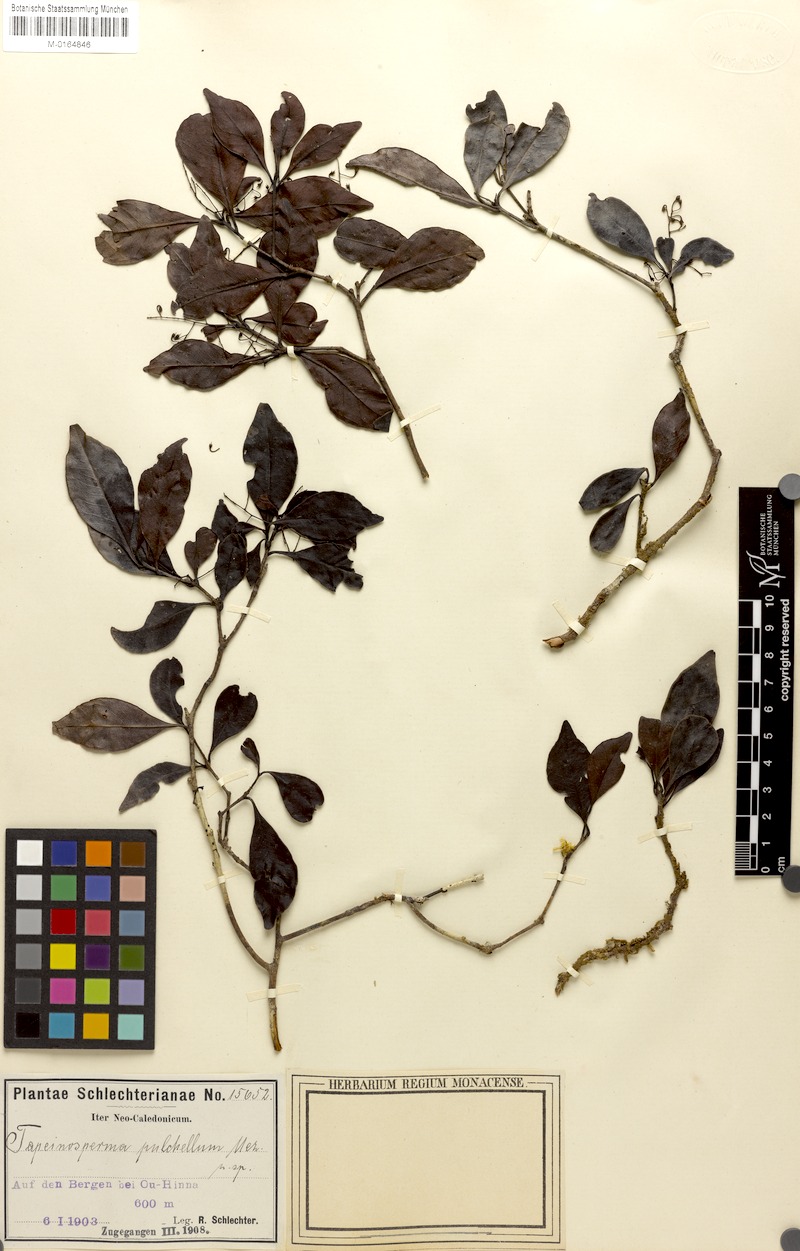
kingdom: Plantae
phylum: Tracheophyta
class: Magnoliopsida
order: Ericales
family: Primulaceae
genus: Tapeinosperma
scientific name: Tapeinosperma pulchellum
